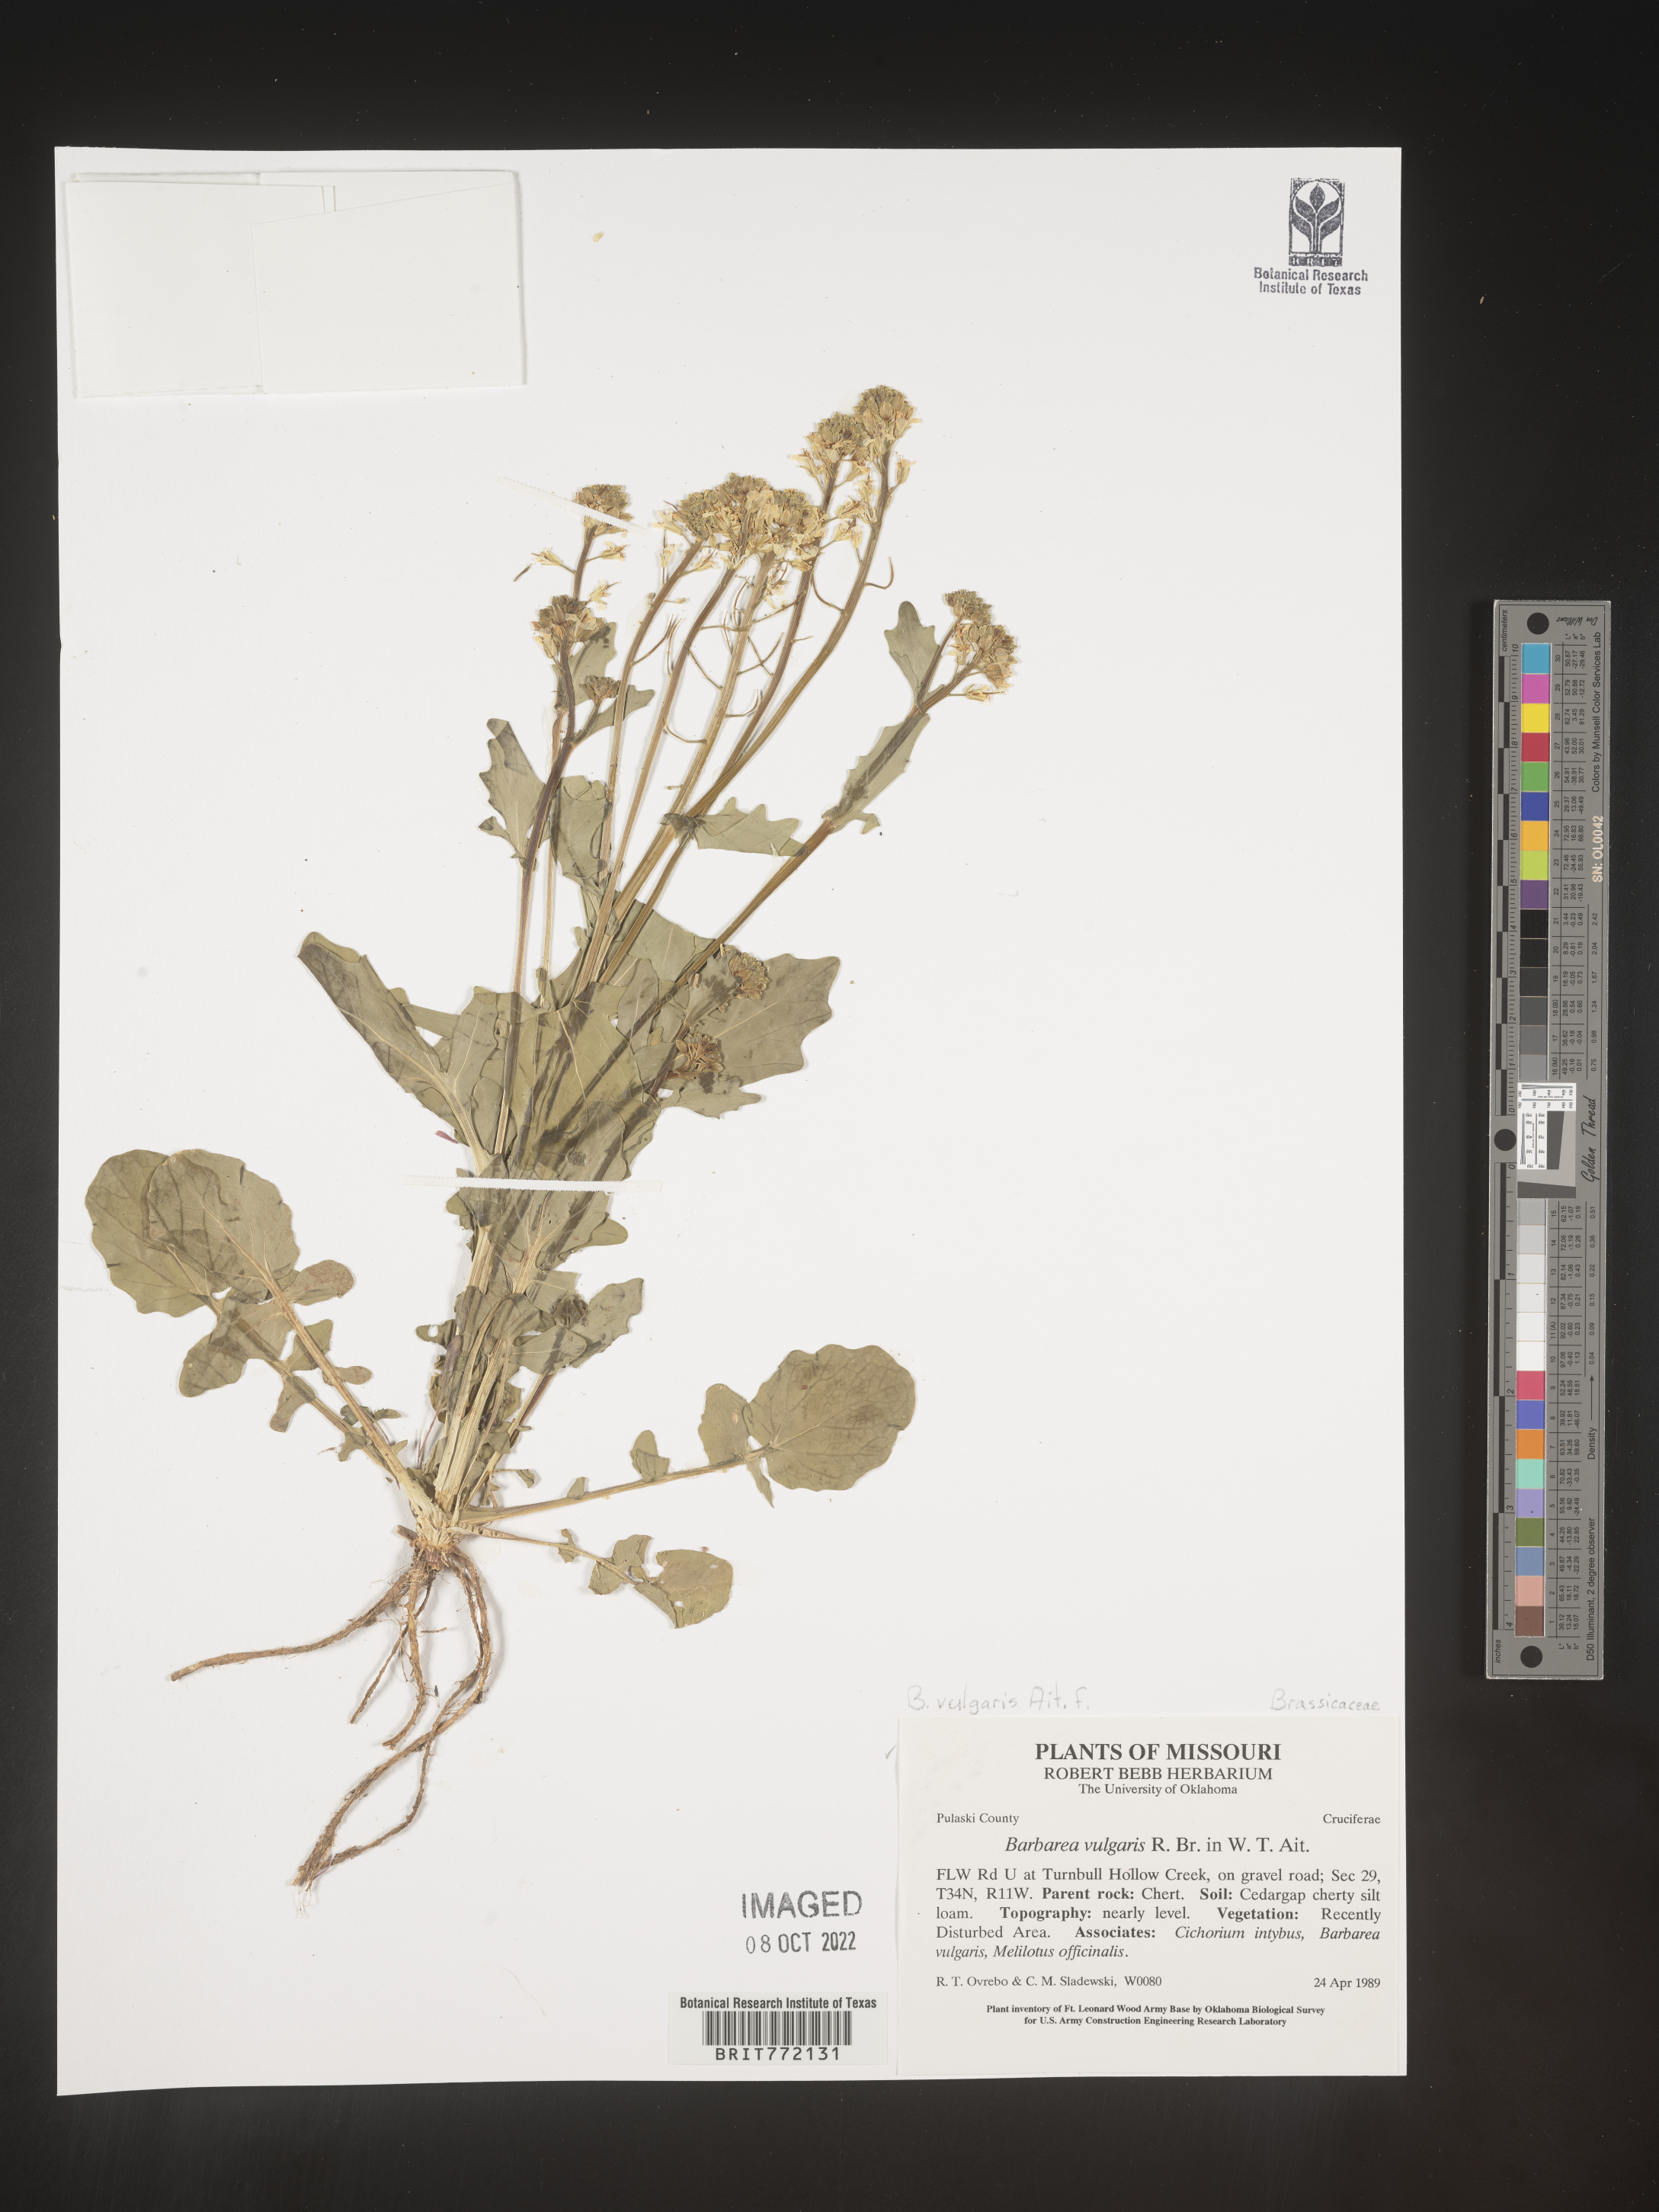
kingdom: Plantae
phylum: Tracheophyta
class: Magnoliopsida
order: Brassicales
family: Brassicaceae
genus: Barbarea
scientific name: Barbarea vulgaris
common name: Cressy-greens
